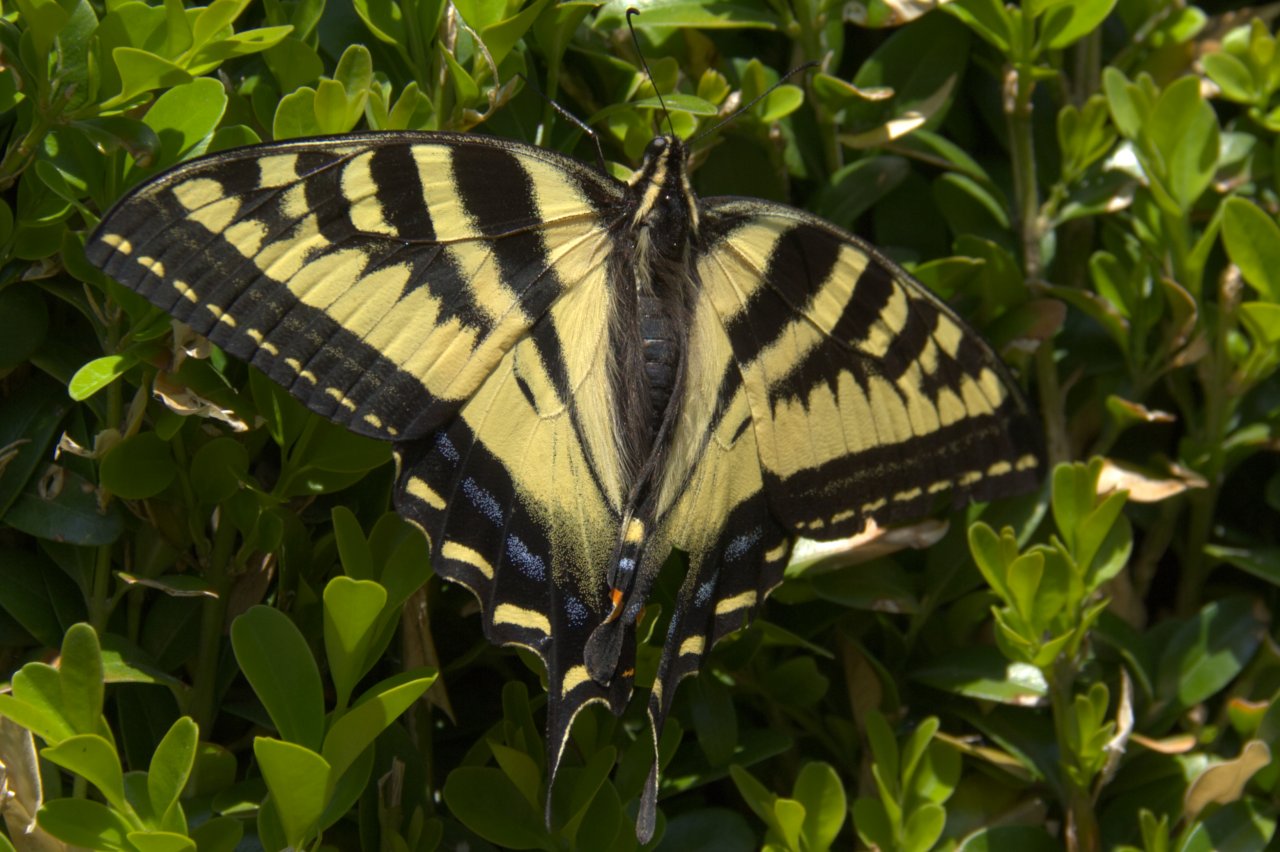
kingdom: Animalia
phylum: Arthropoda
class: Insecta
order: Lepidoptera
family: Papilionidae
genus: Pterourus
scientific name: Pterourus rutulus
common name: Western Tiger Swallowtail
